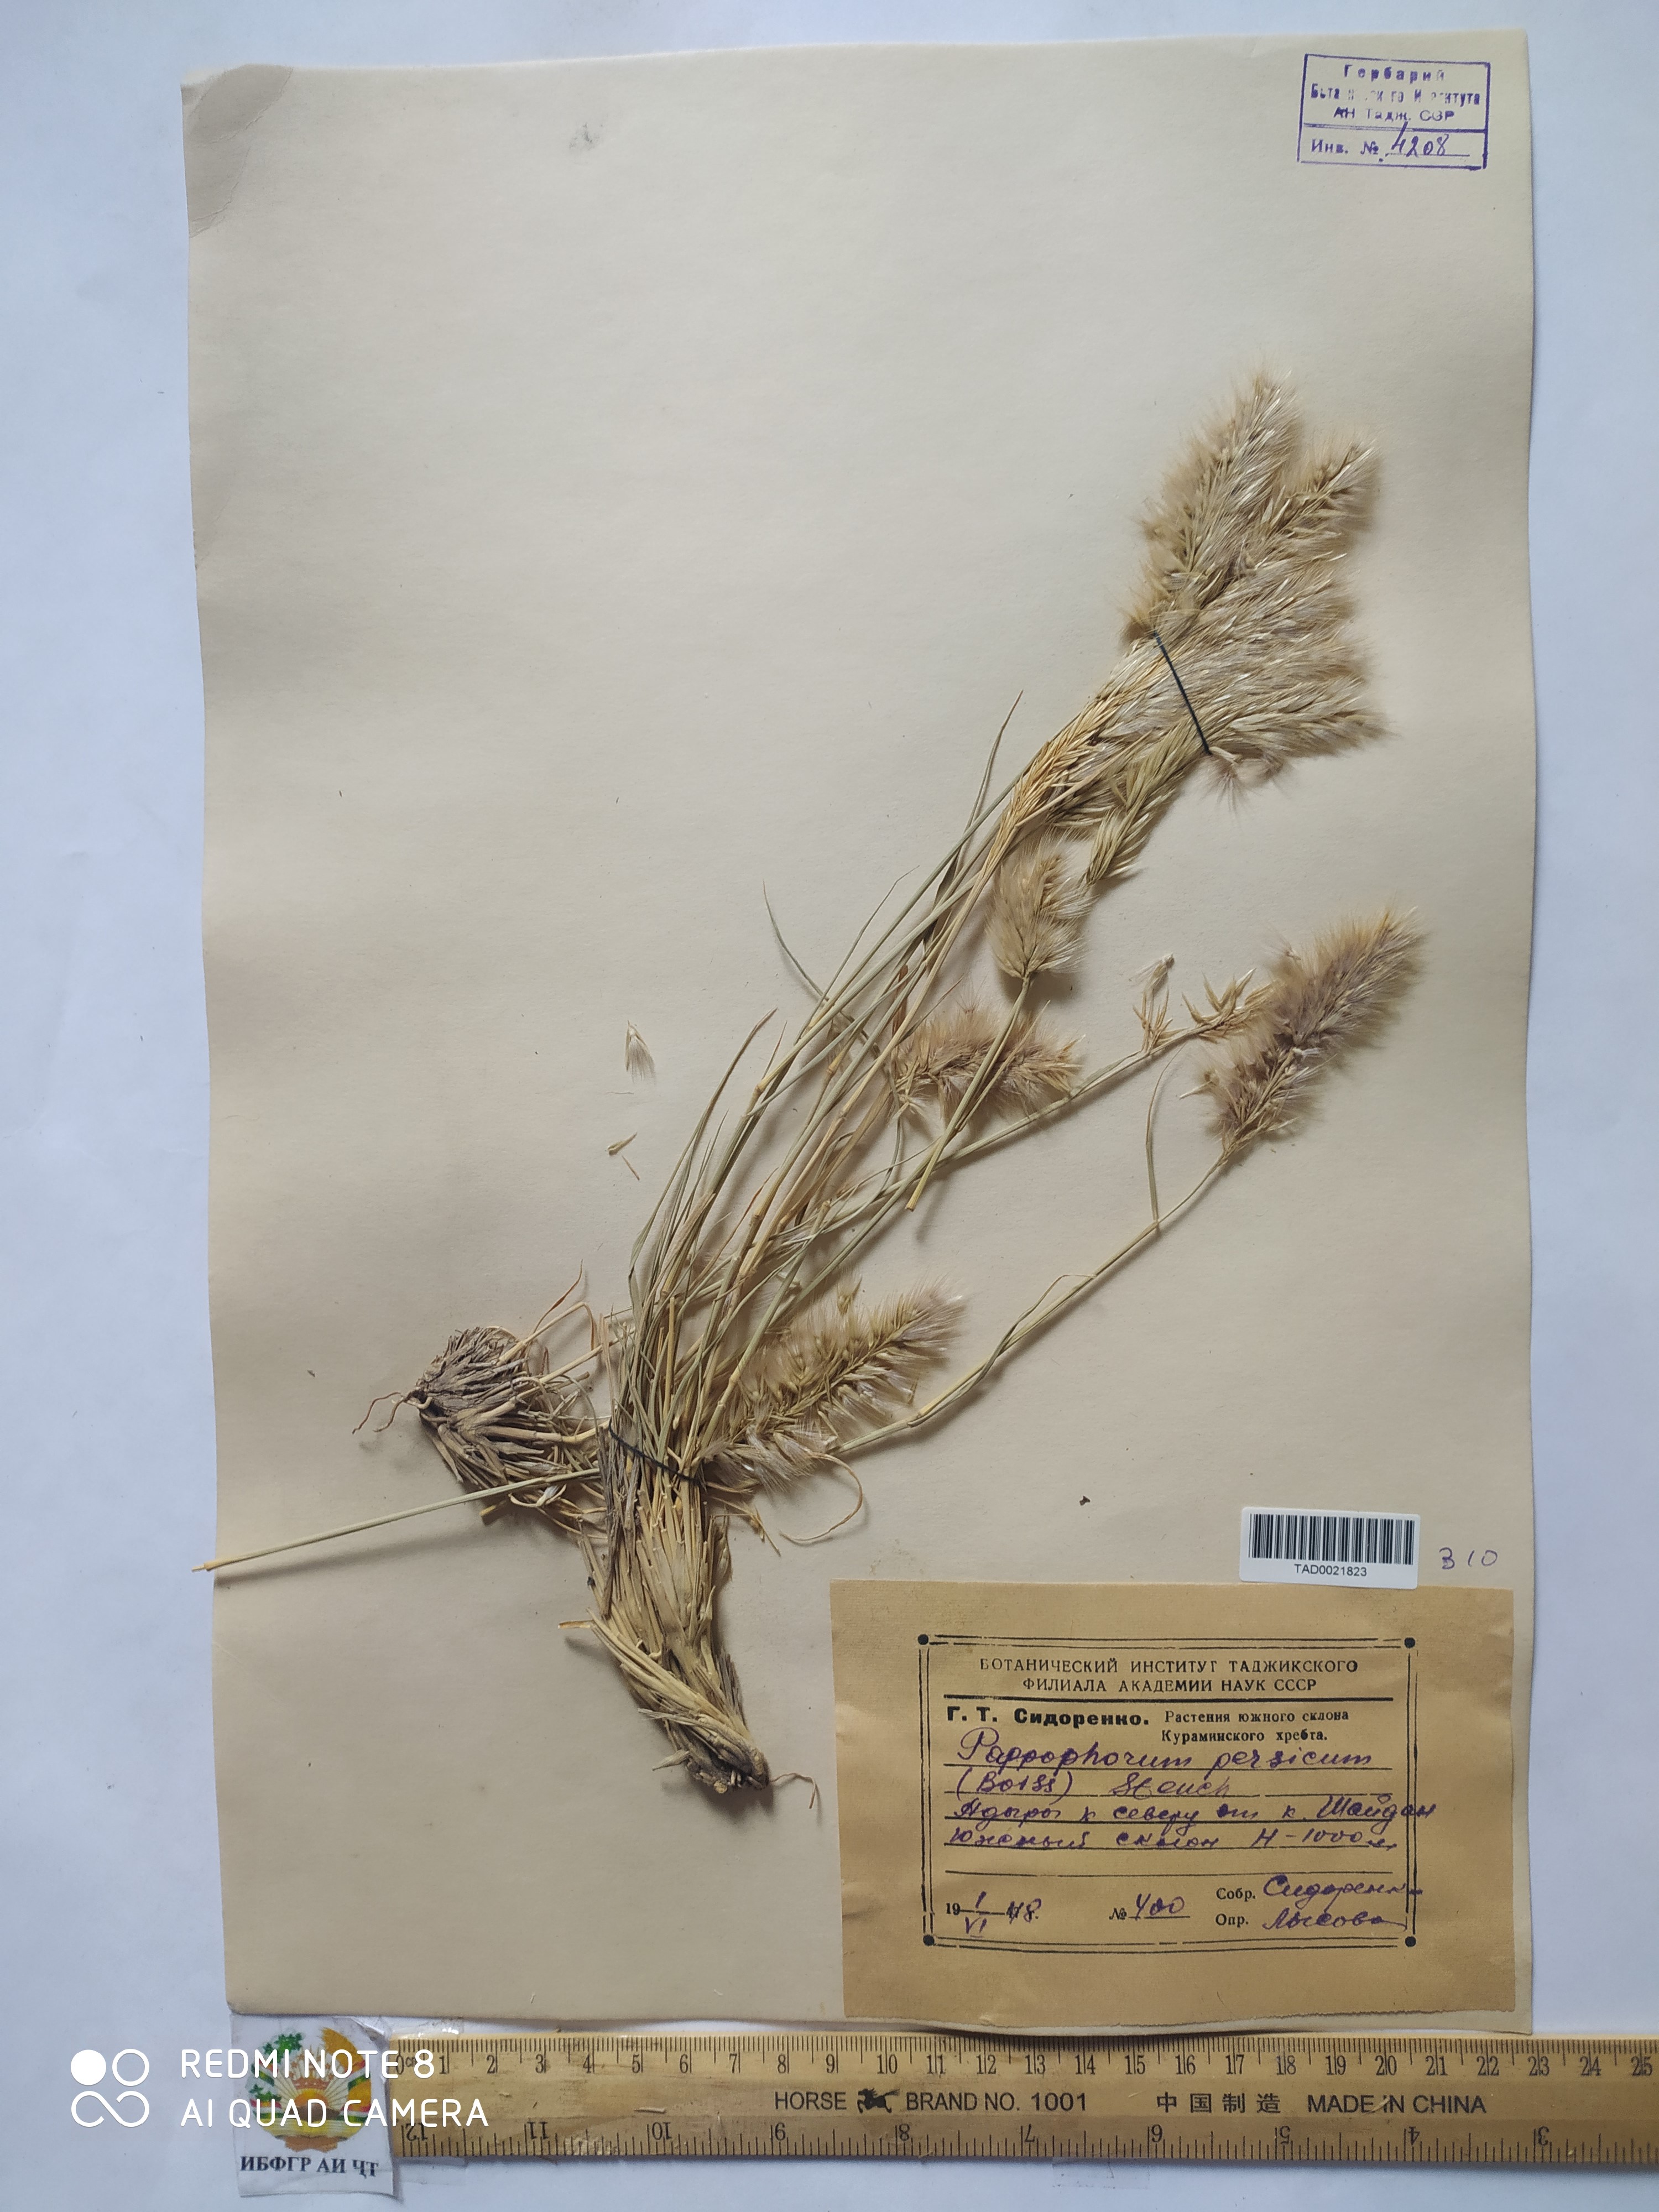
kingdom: Plantae
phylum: Tracheophyta
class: Liliopsida
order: Poales
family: Poaceae
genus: Enneapogon
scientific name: Enneapogon persicus
